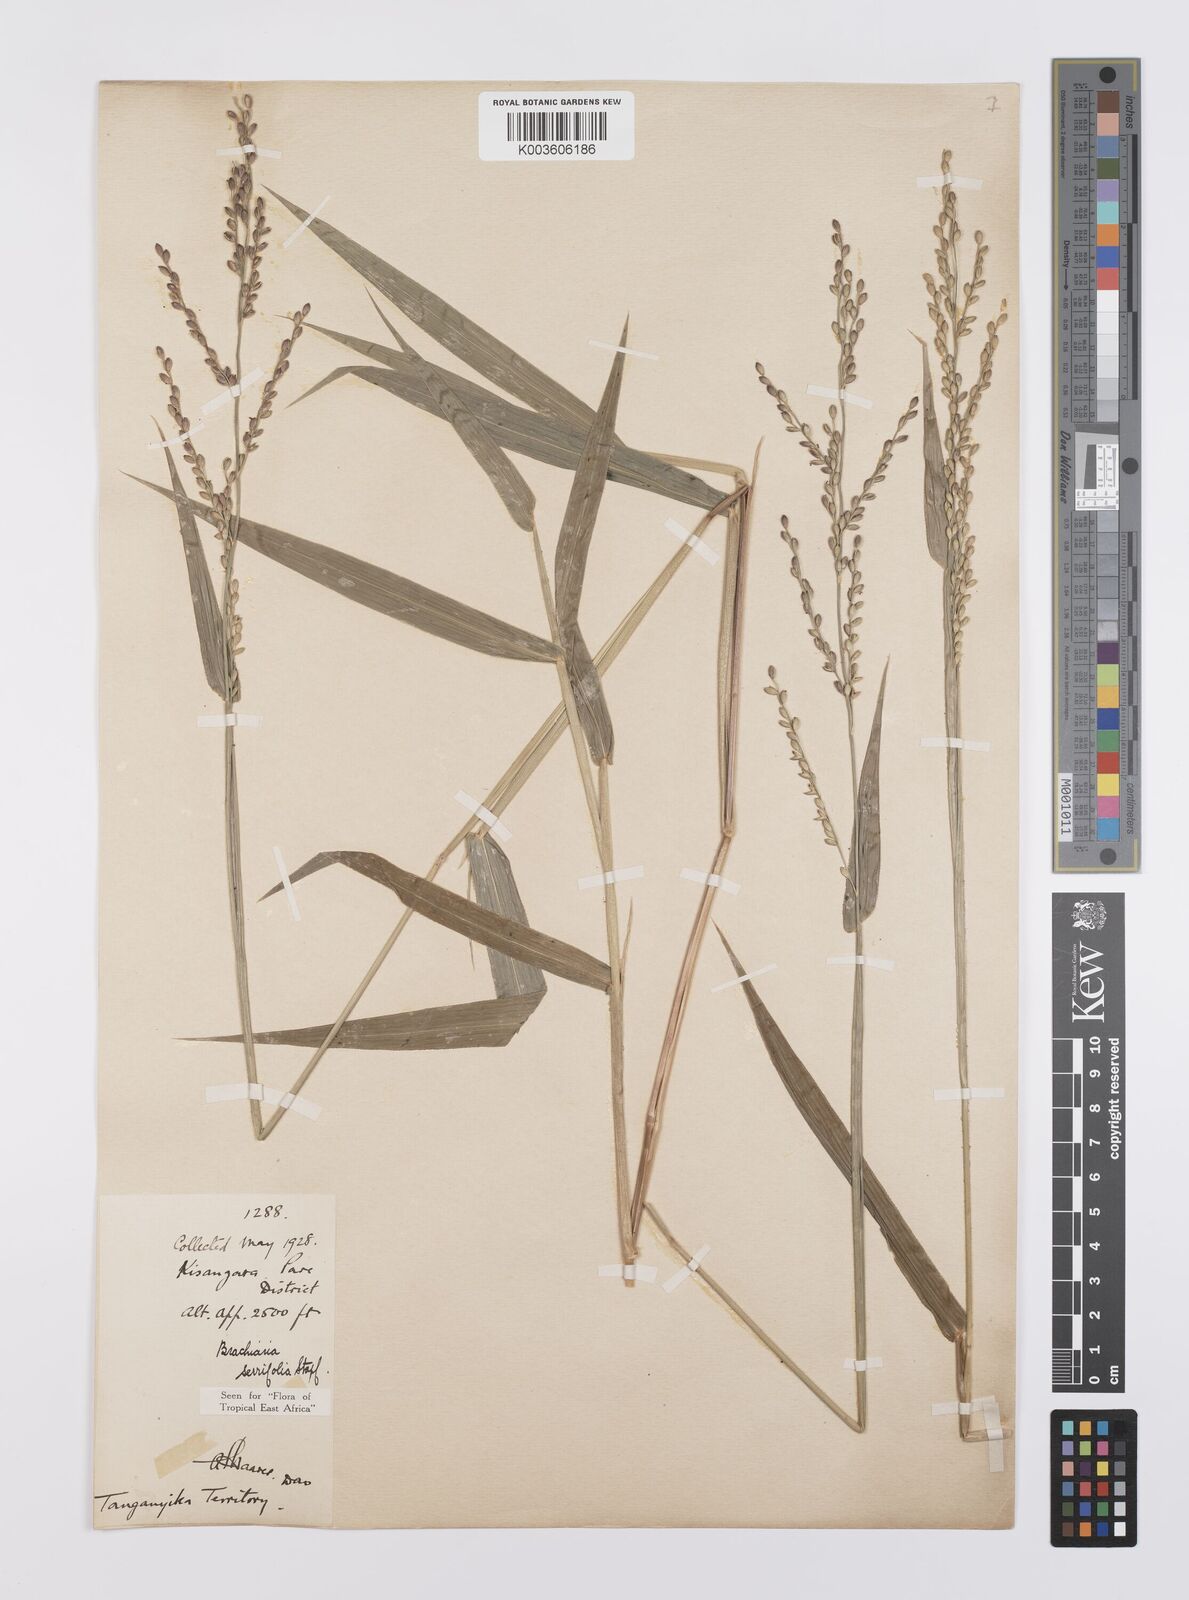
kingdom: Plantae
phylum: Tracheophyta
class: Liliopsida
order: Poales
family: Poaceae
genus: Urochloa
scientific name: Urochloa serrifolia
